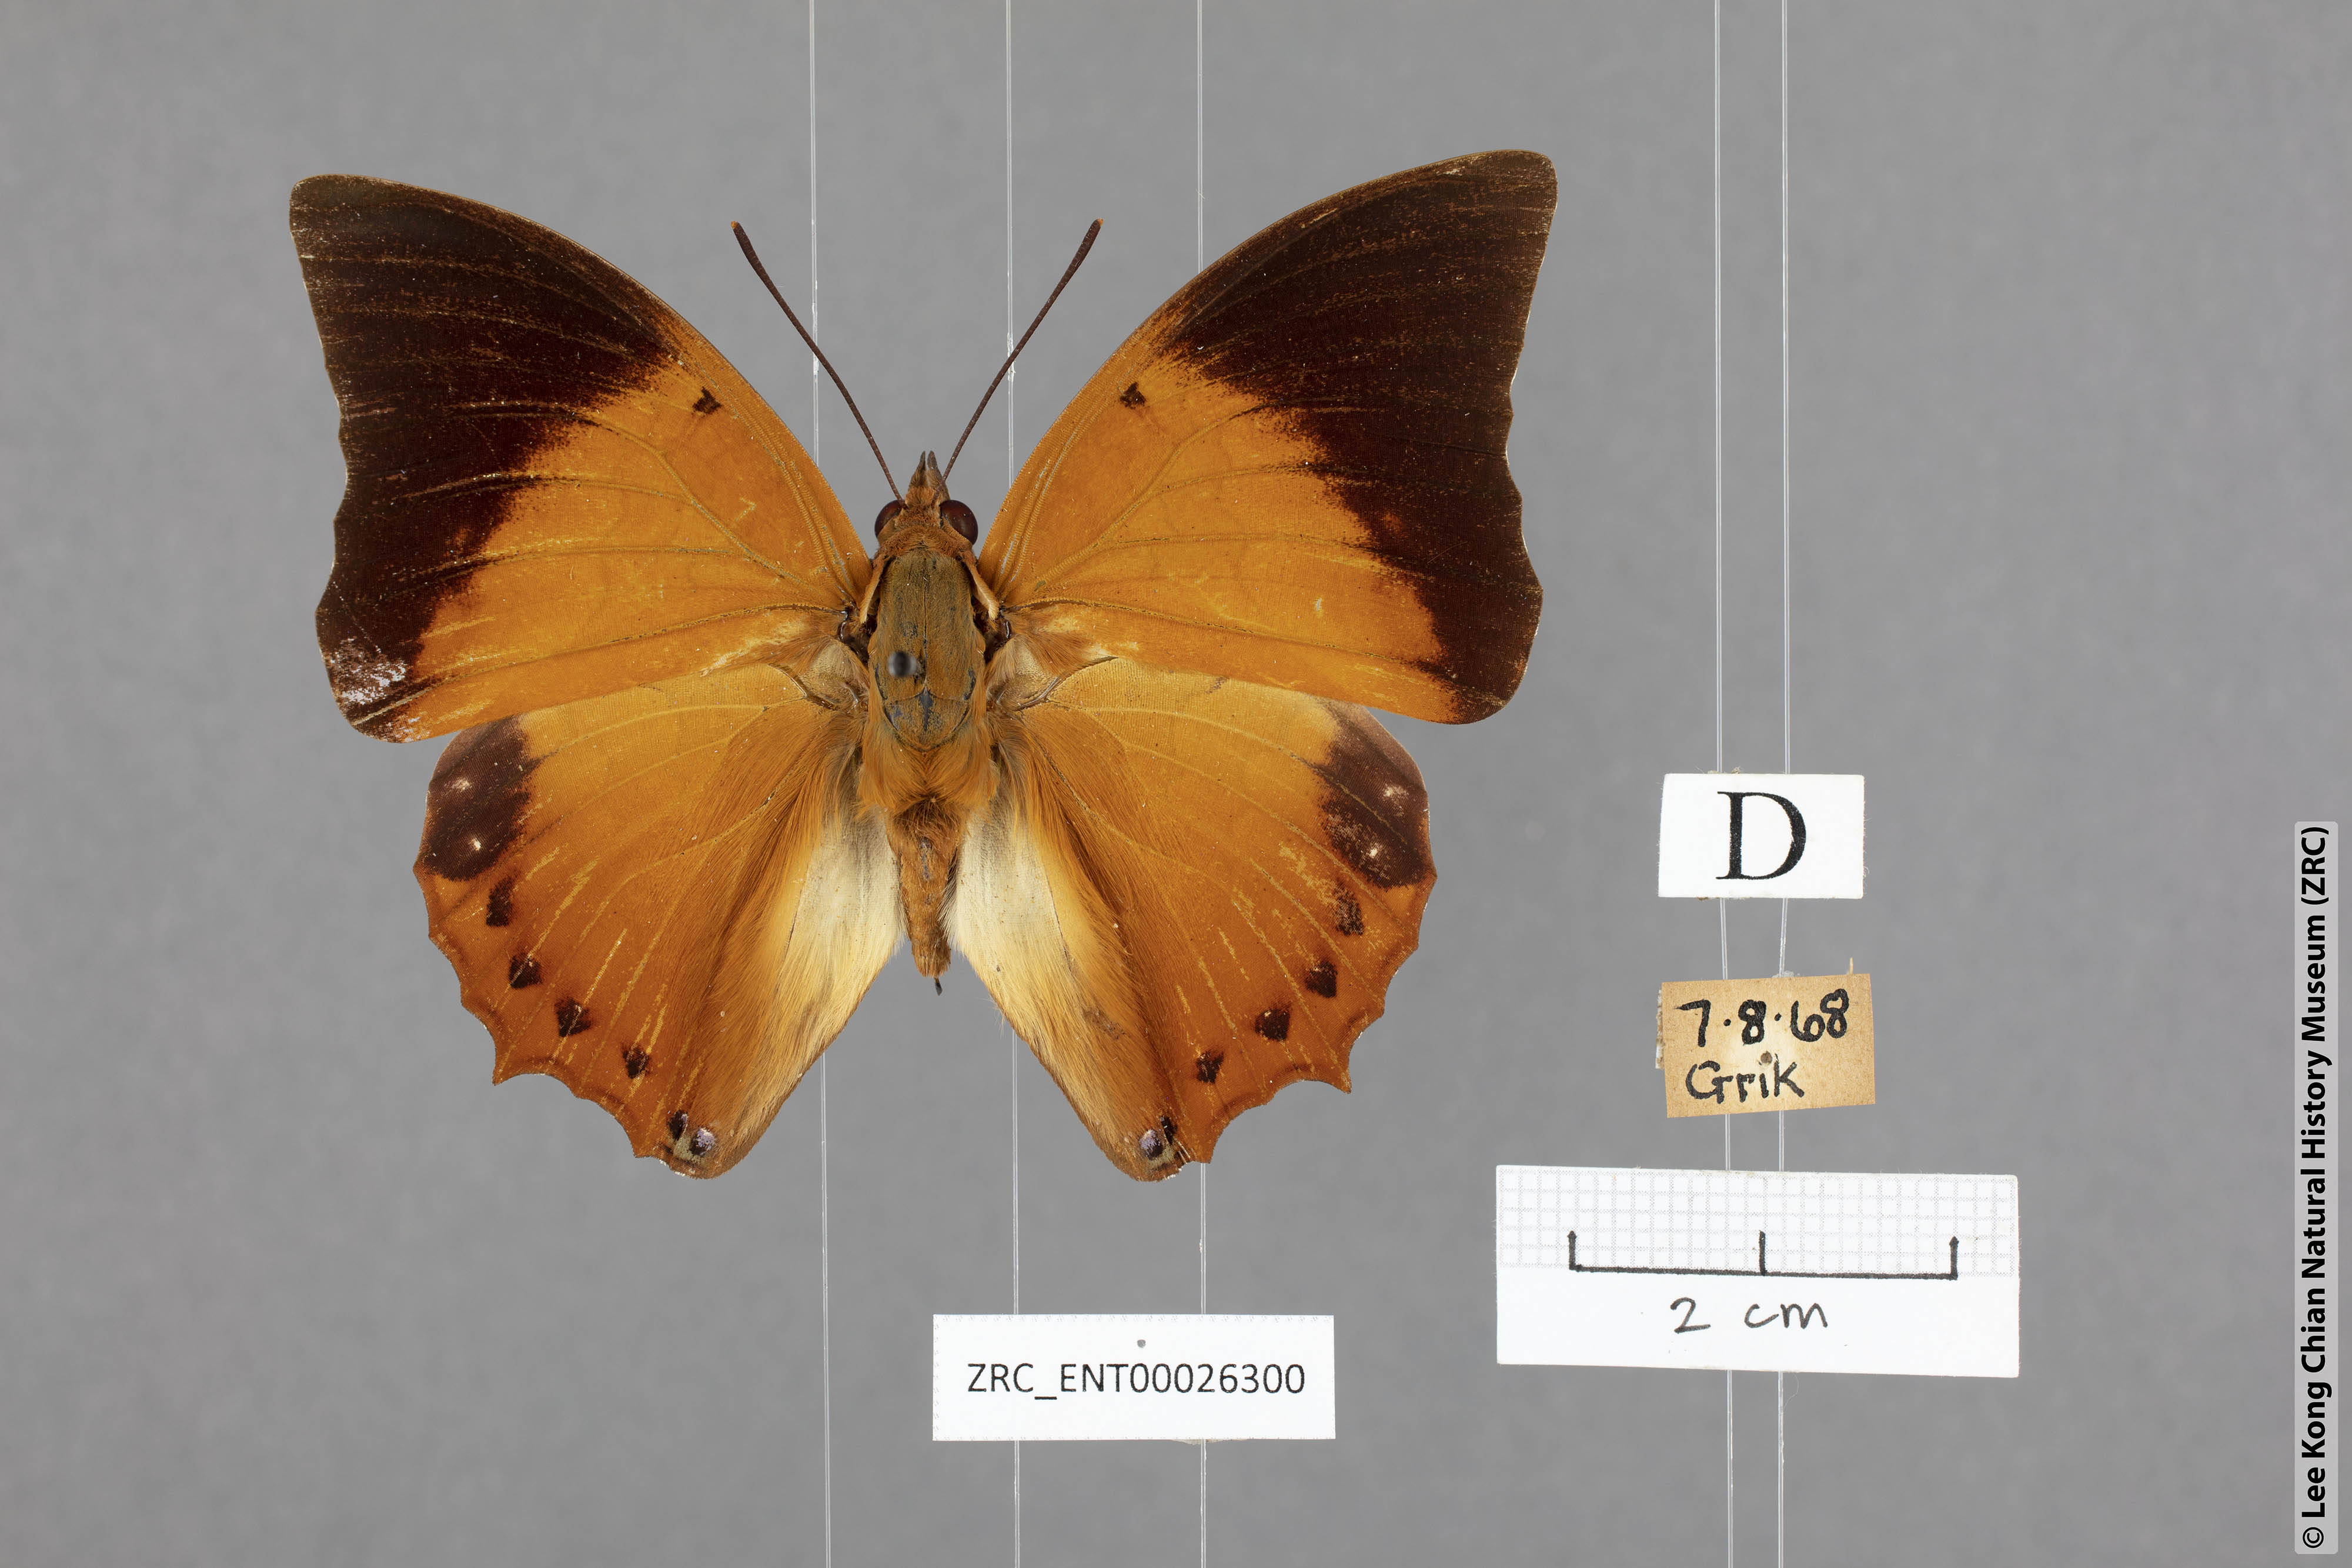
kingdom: Animalia
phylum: Arthropoda
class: Insecta
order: Lepidoptera
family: Nymphalidae
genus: Charaxes
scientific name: Charaxes bernardus
